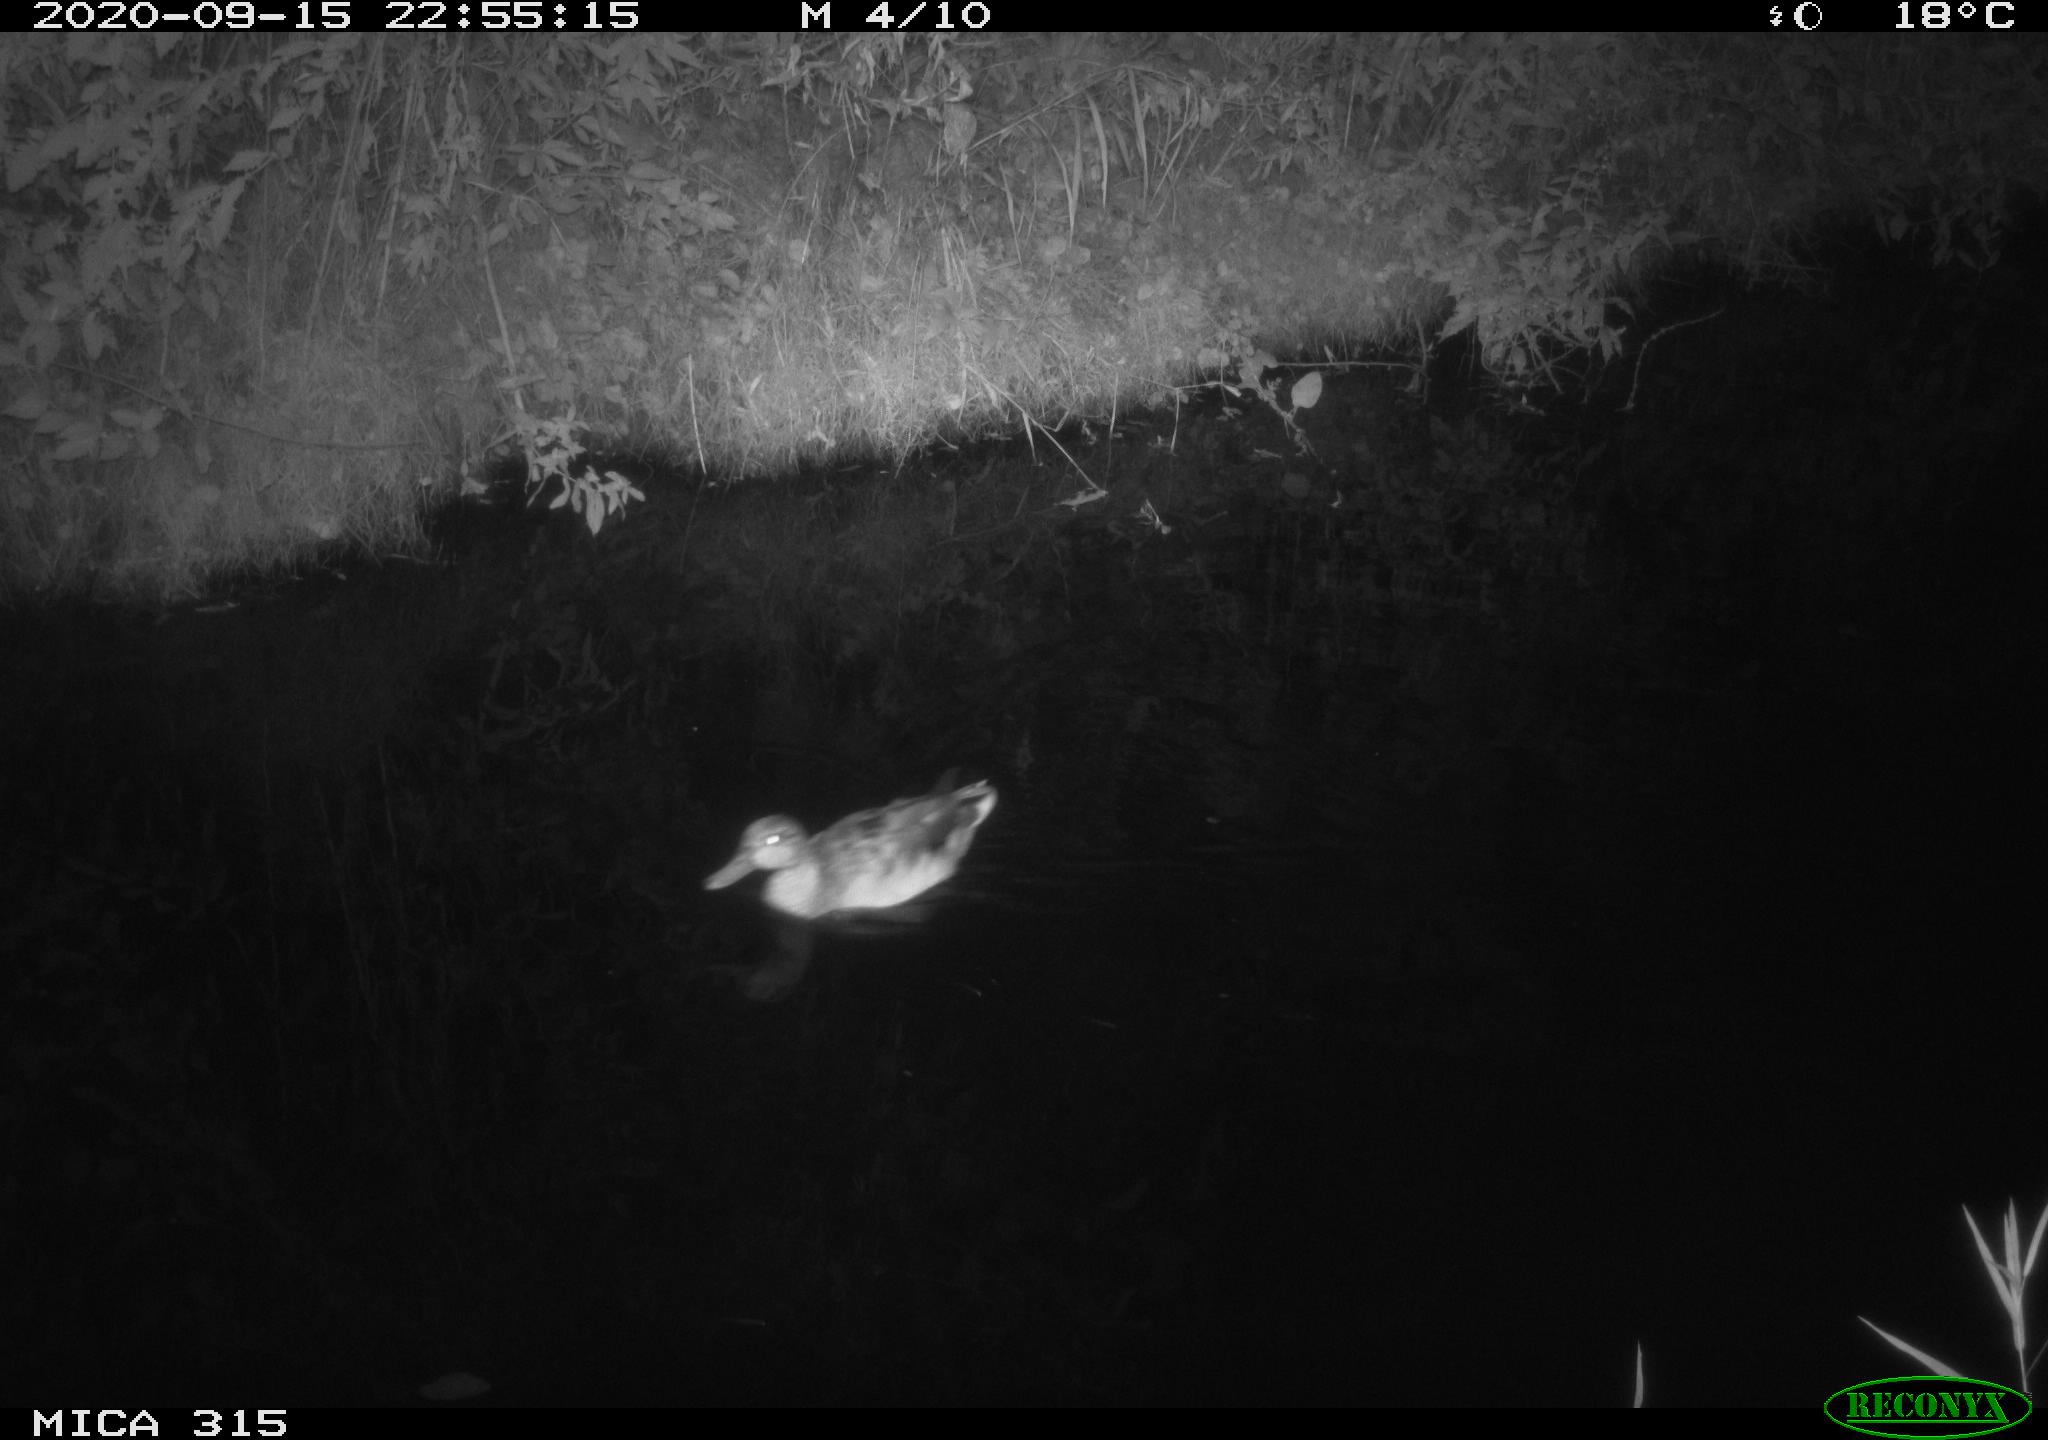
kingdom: Animalia
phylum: Chordata
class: Aves
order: Anseriformes
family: Anatidae
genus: Anas
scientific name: Anas platyrhynchos
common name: Mallard
